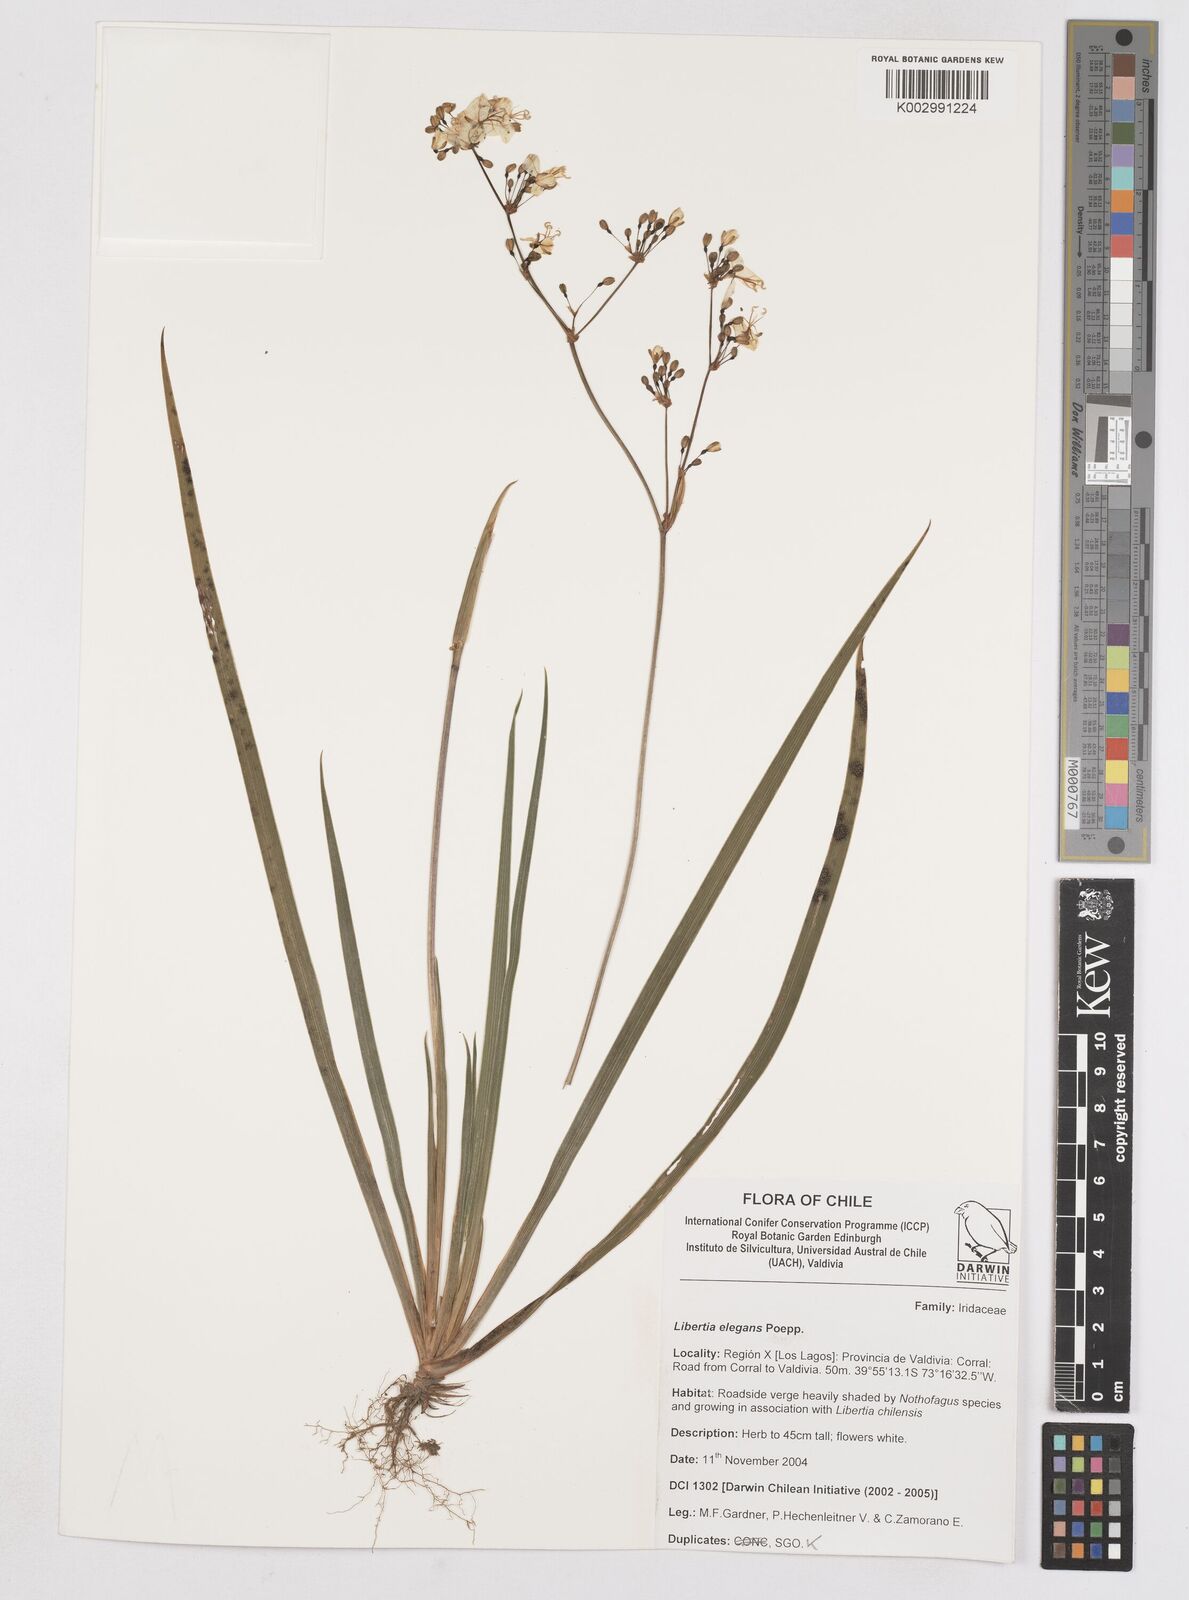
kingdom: Plantae
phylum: Tracheophyta
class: Liliopsida
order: Asparagales
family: Iridaceae
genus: Libertia
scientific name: Libertia chilensis
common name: Satin flower
